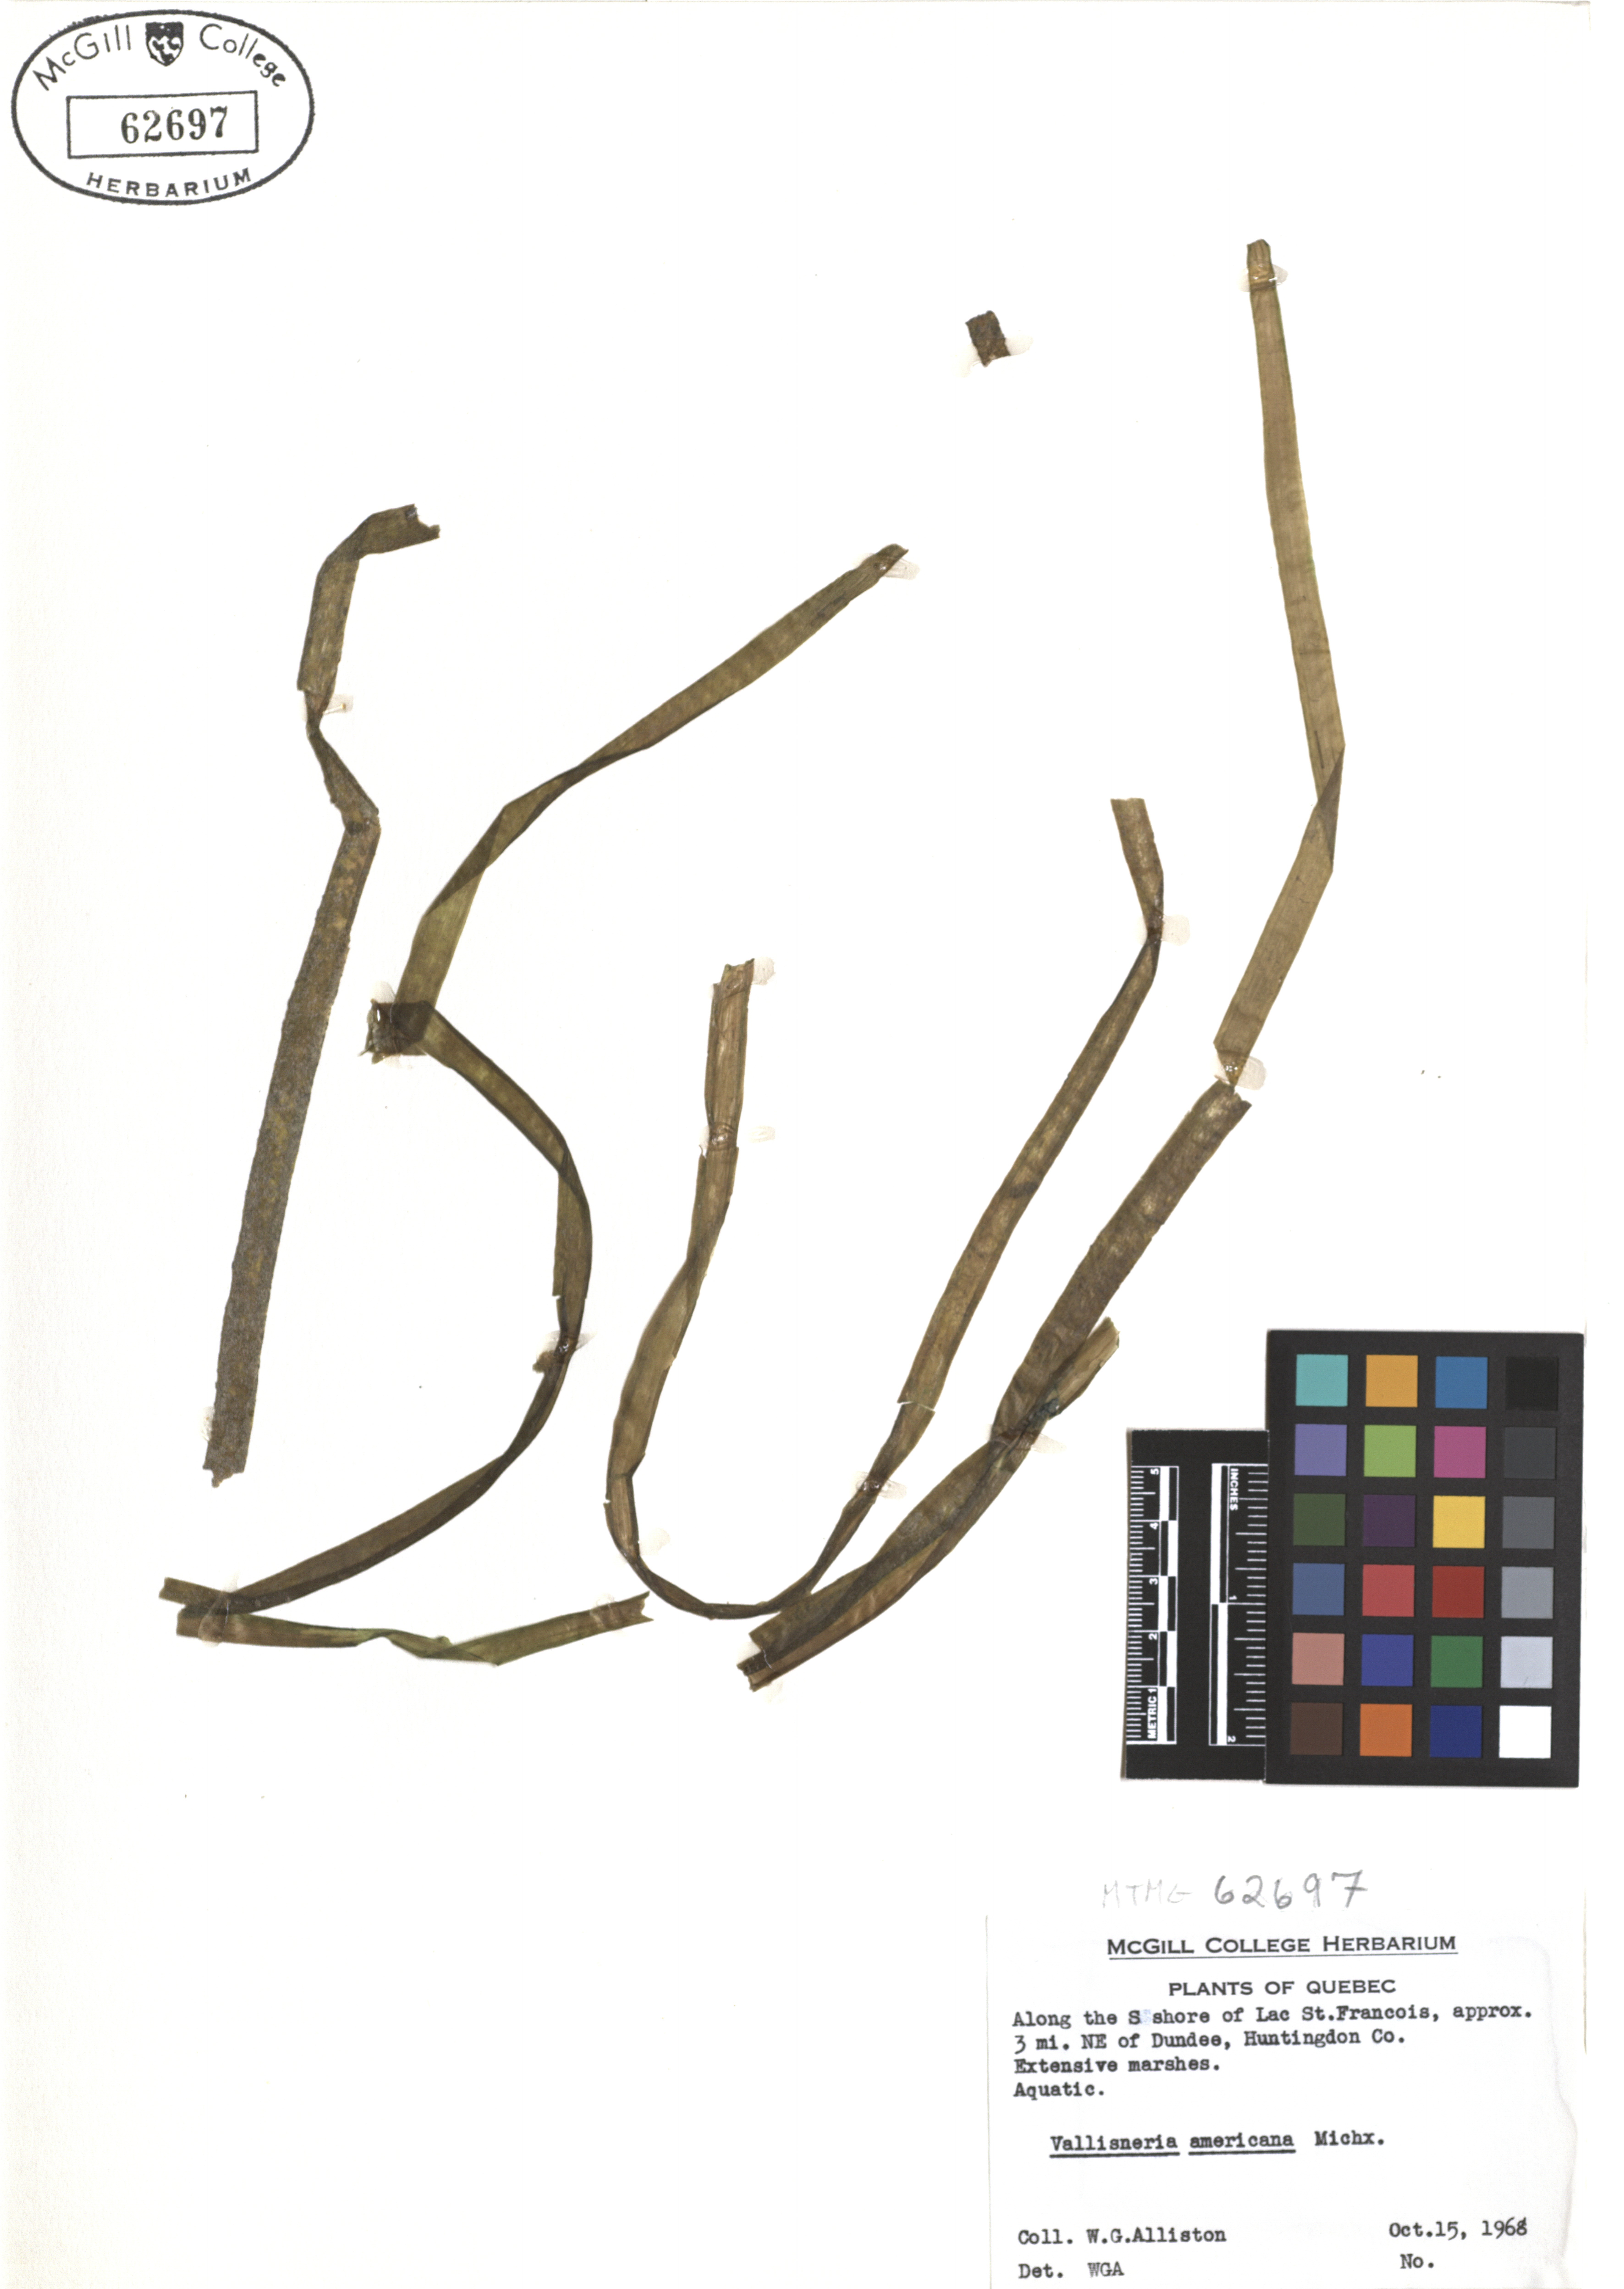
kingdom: Plantae
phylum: Tracheophyta
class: Liliopsida
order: Alismatales
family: Hydrocharitaceae
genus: Vallisneria
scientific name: Vallisneria americana
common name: American eelgrass
